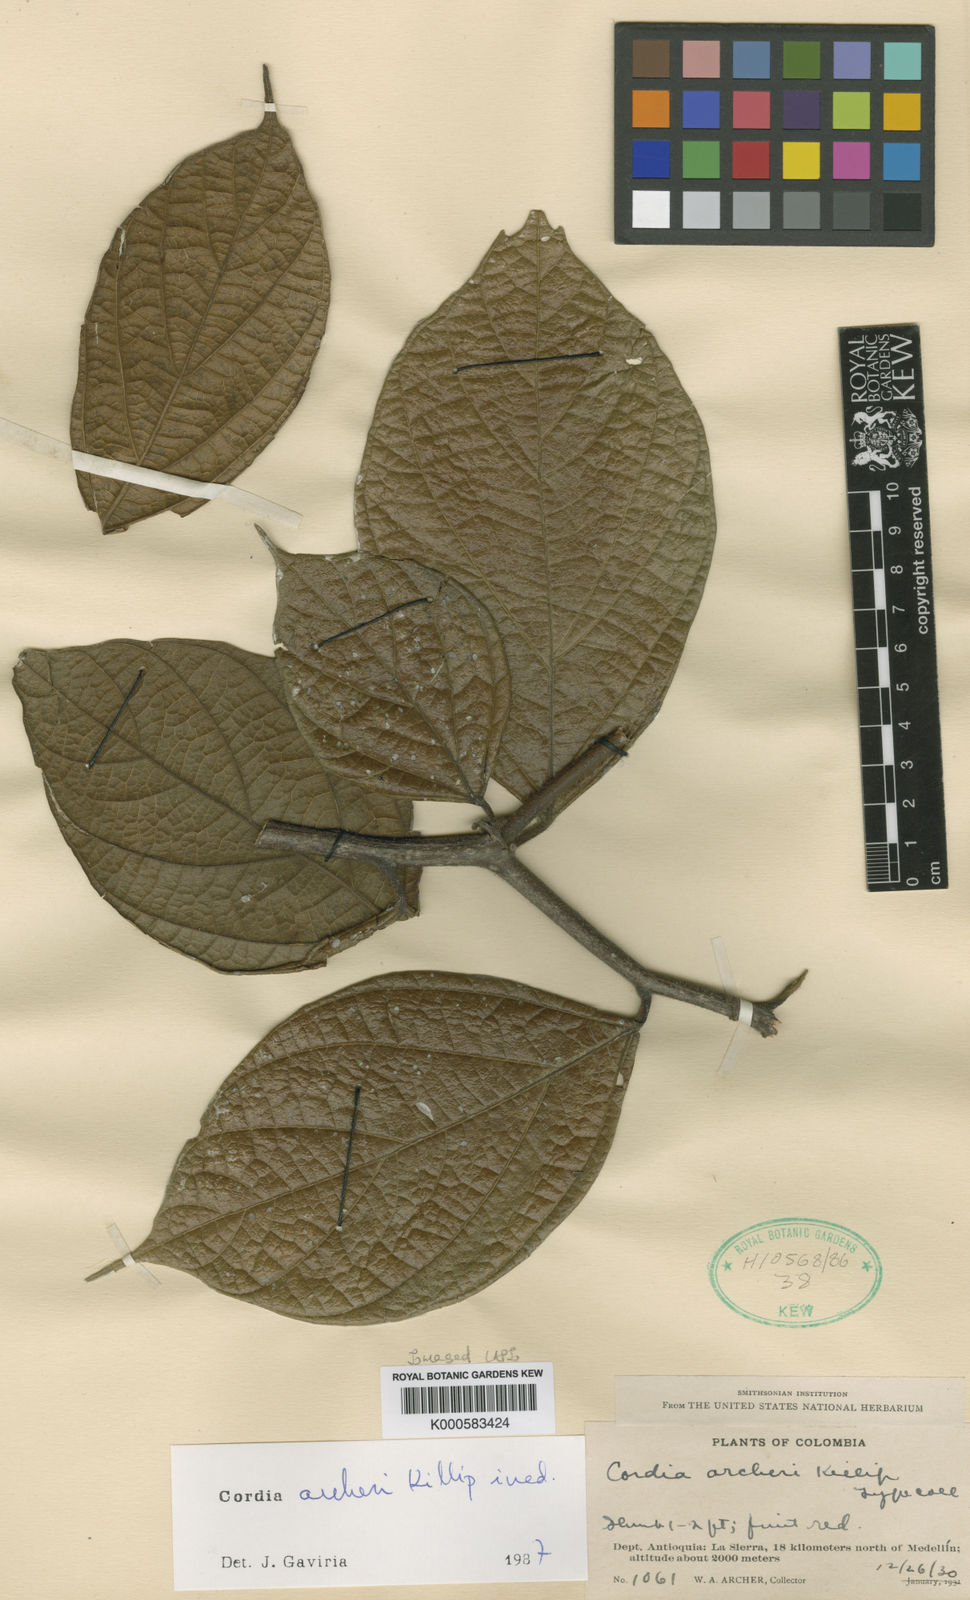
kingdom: Plantae
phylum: Tracheophyta
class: Magnoliopsida
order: Boraginales
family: Cordiaceae
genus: Cordia
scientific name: Cordia
